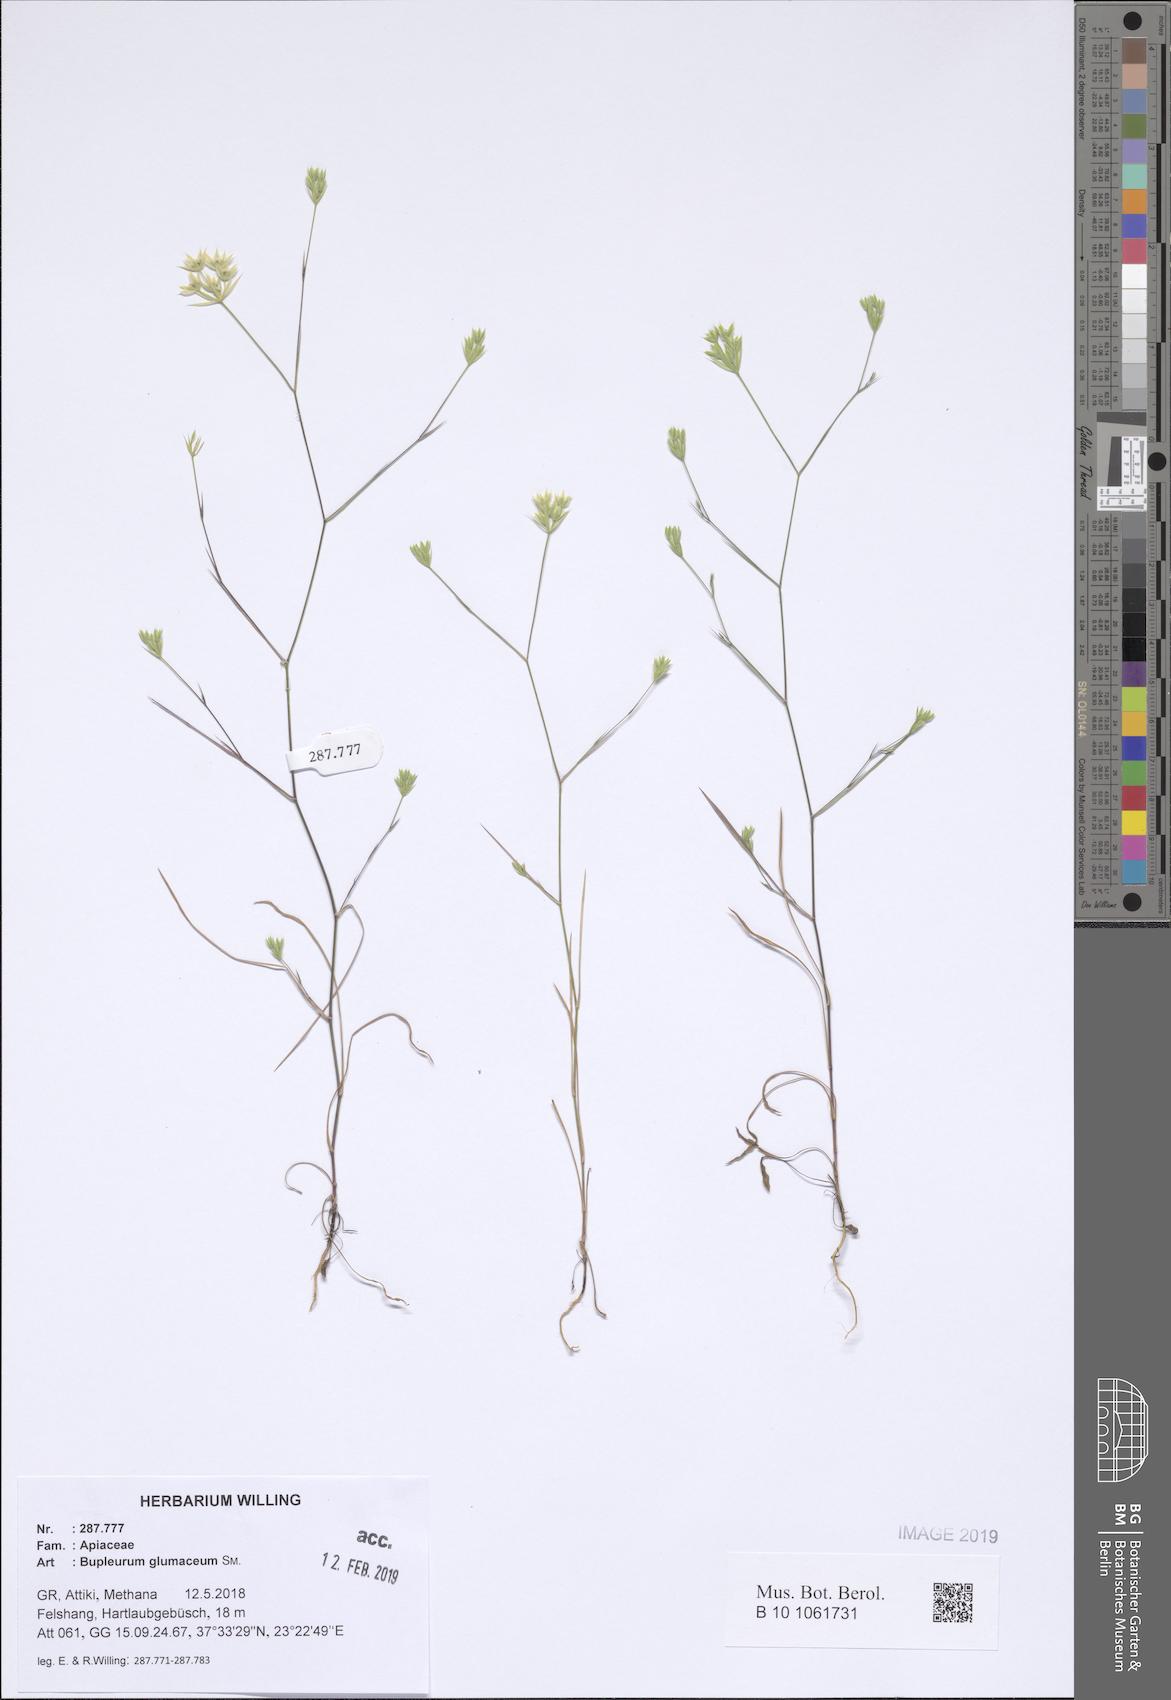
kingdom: Plantae
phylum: Tracheophyta
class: Magnoliopsida
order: Apiales
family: Apiaceae
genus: Bupleurum
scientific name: Bupleurum glumaceum
